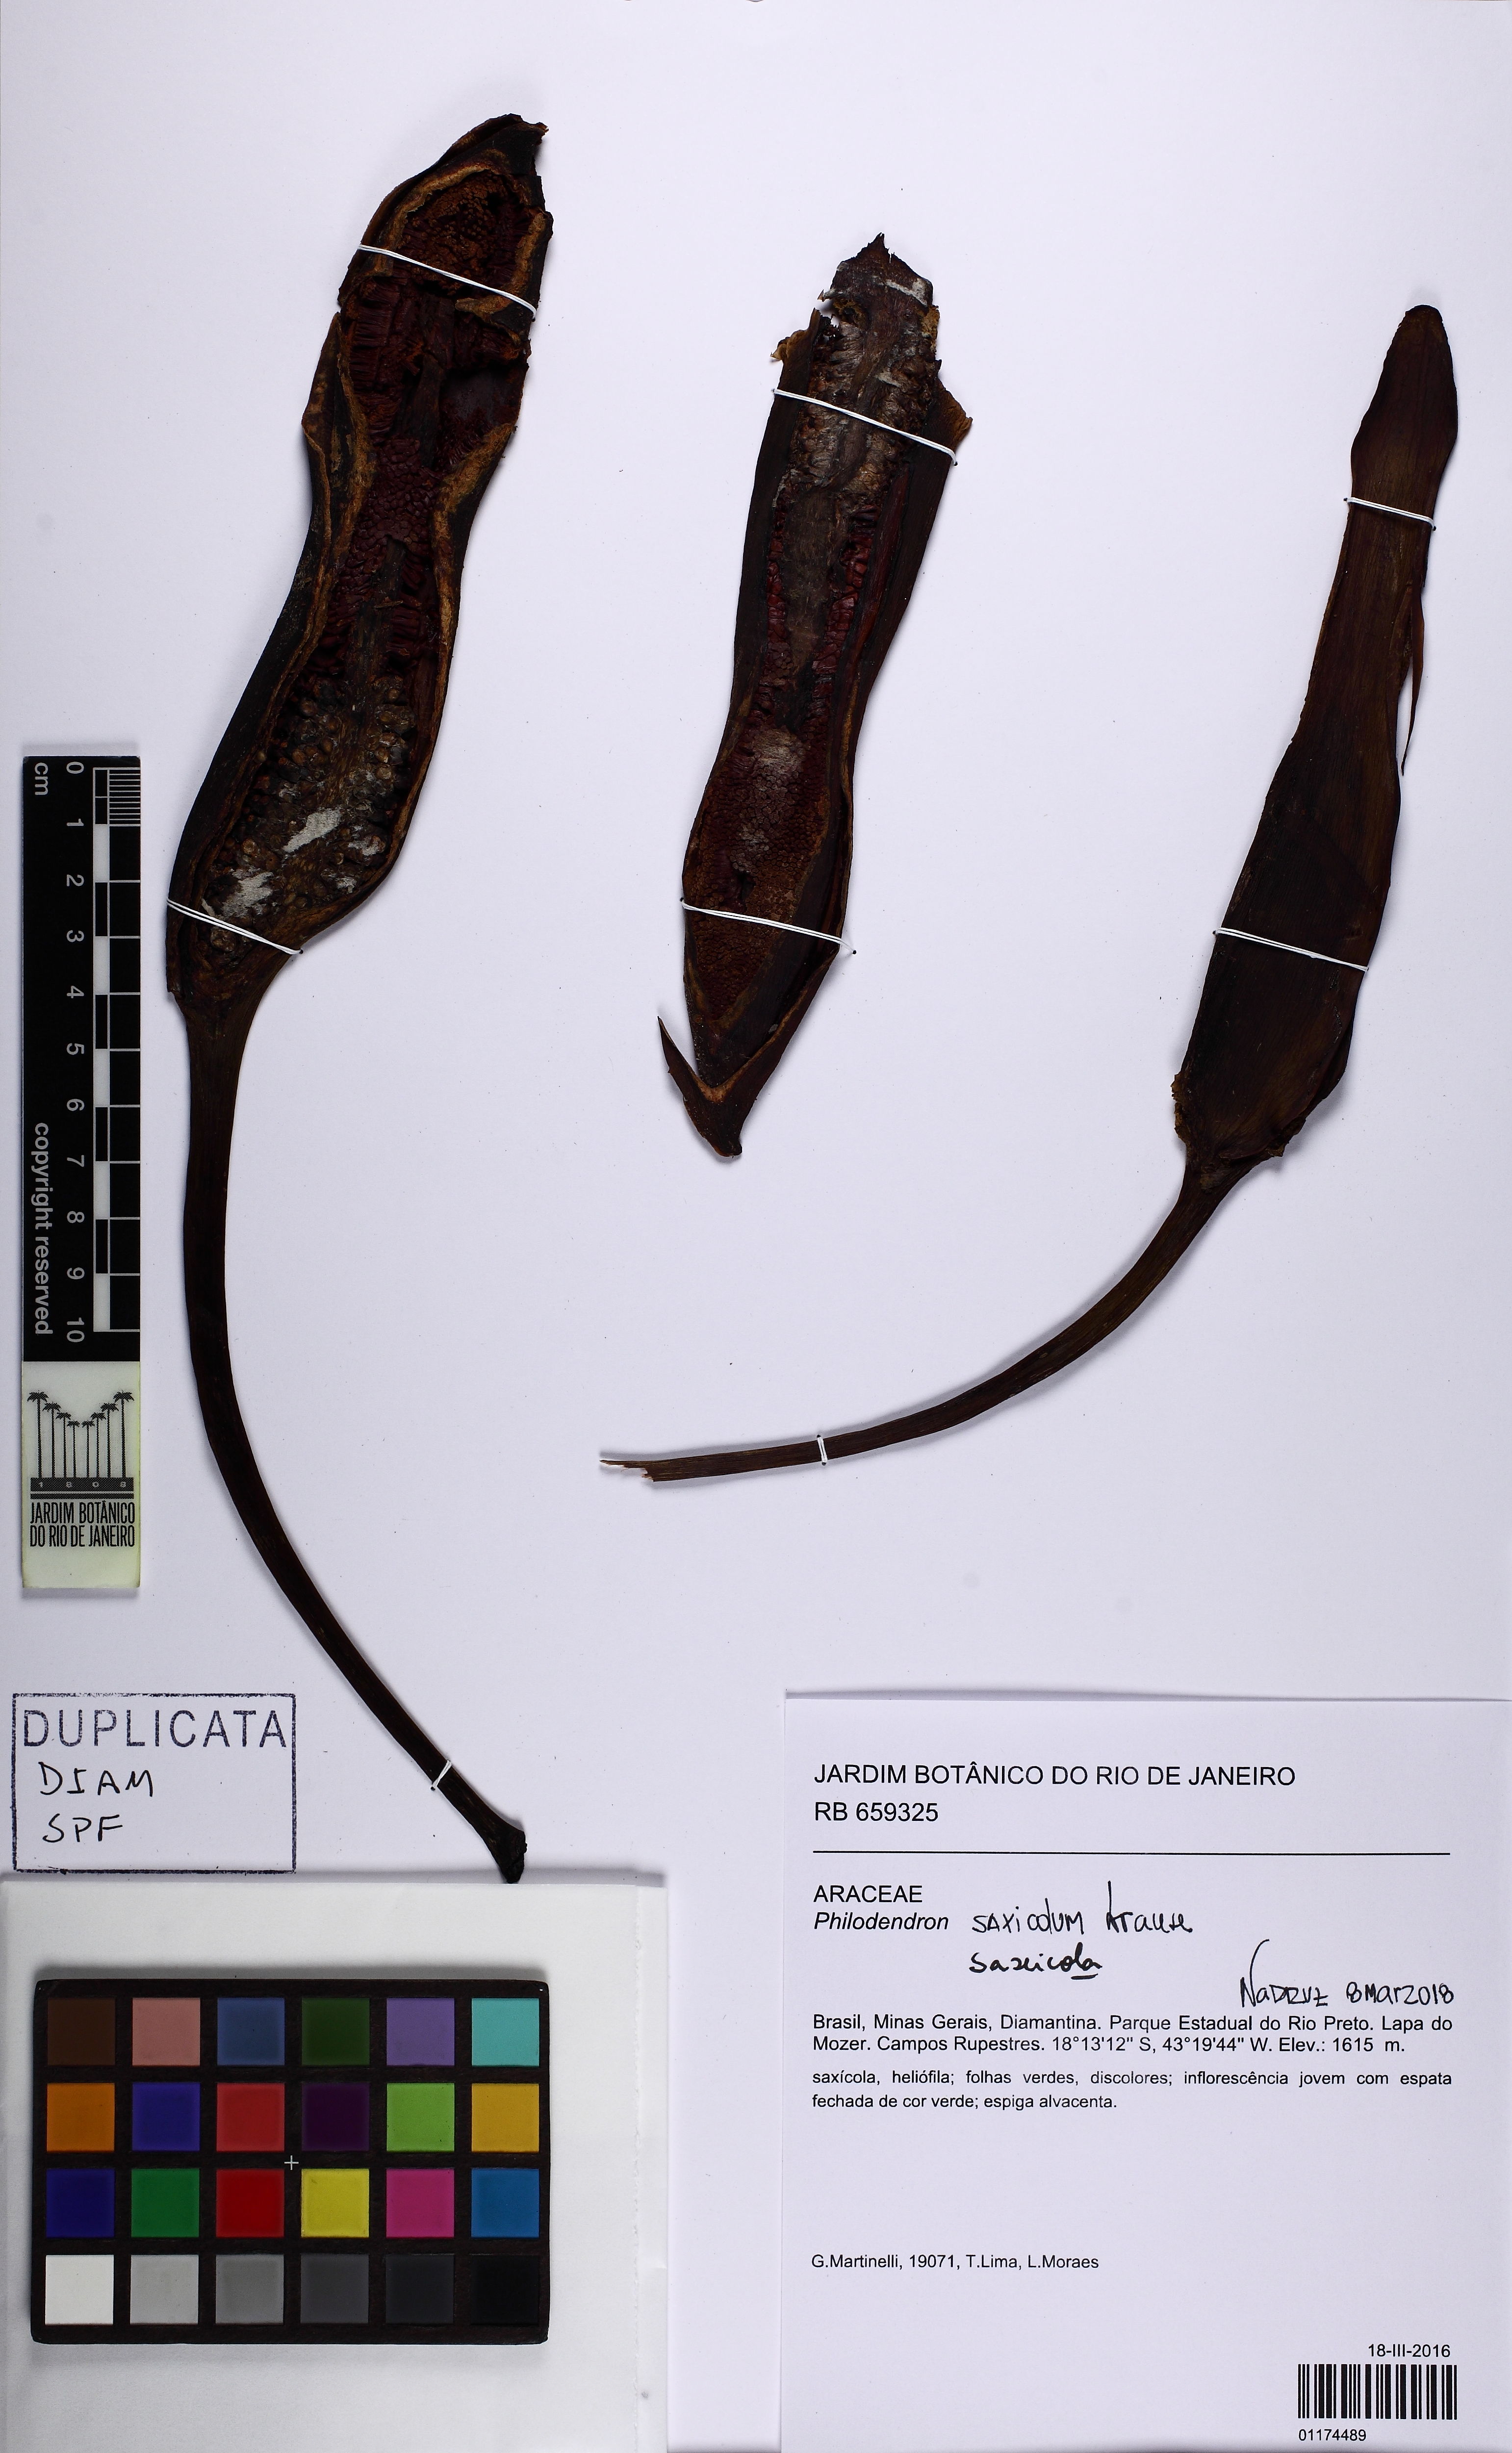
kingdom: Plantae
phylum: Tracheophyta
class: Liliopsida
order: Alismatales
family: Araceae
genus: Thaumatophyllum
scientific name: Thaumatophyllum saxicola
